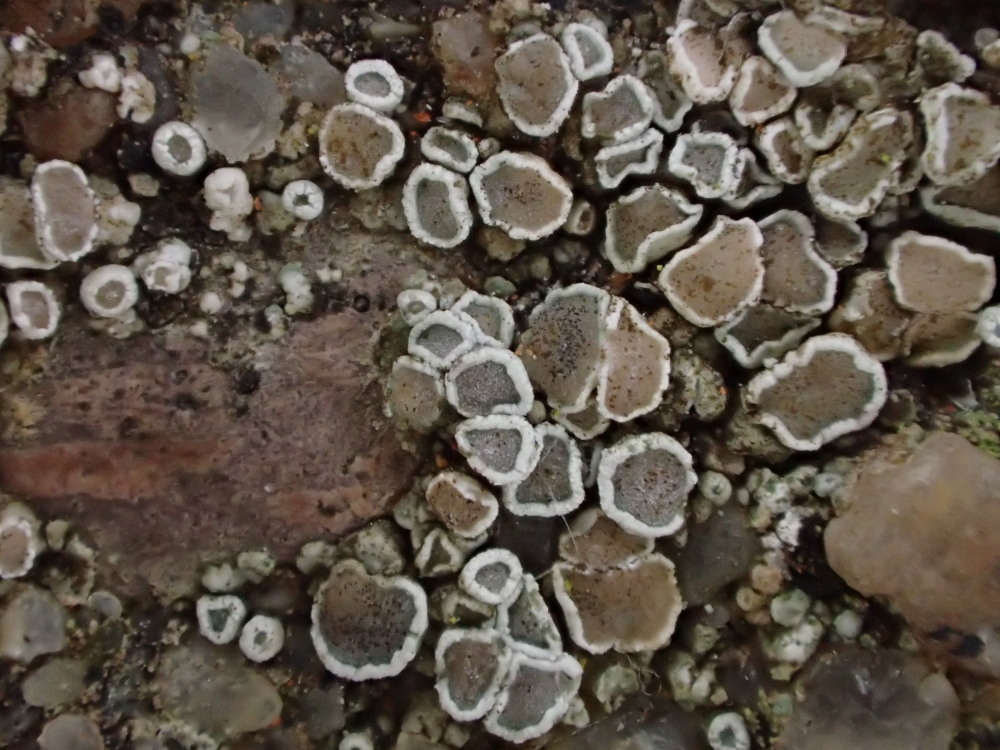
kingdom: Fungi
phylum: Ascomycota
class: Lecanoromycetes
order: Lecanorales
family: Lecanoraceae
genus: Polyozosia
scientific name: Polyozosia dispersa
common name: spredt kantskivelav
